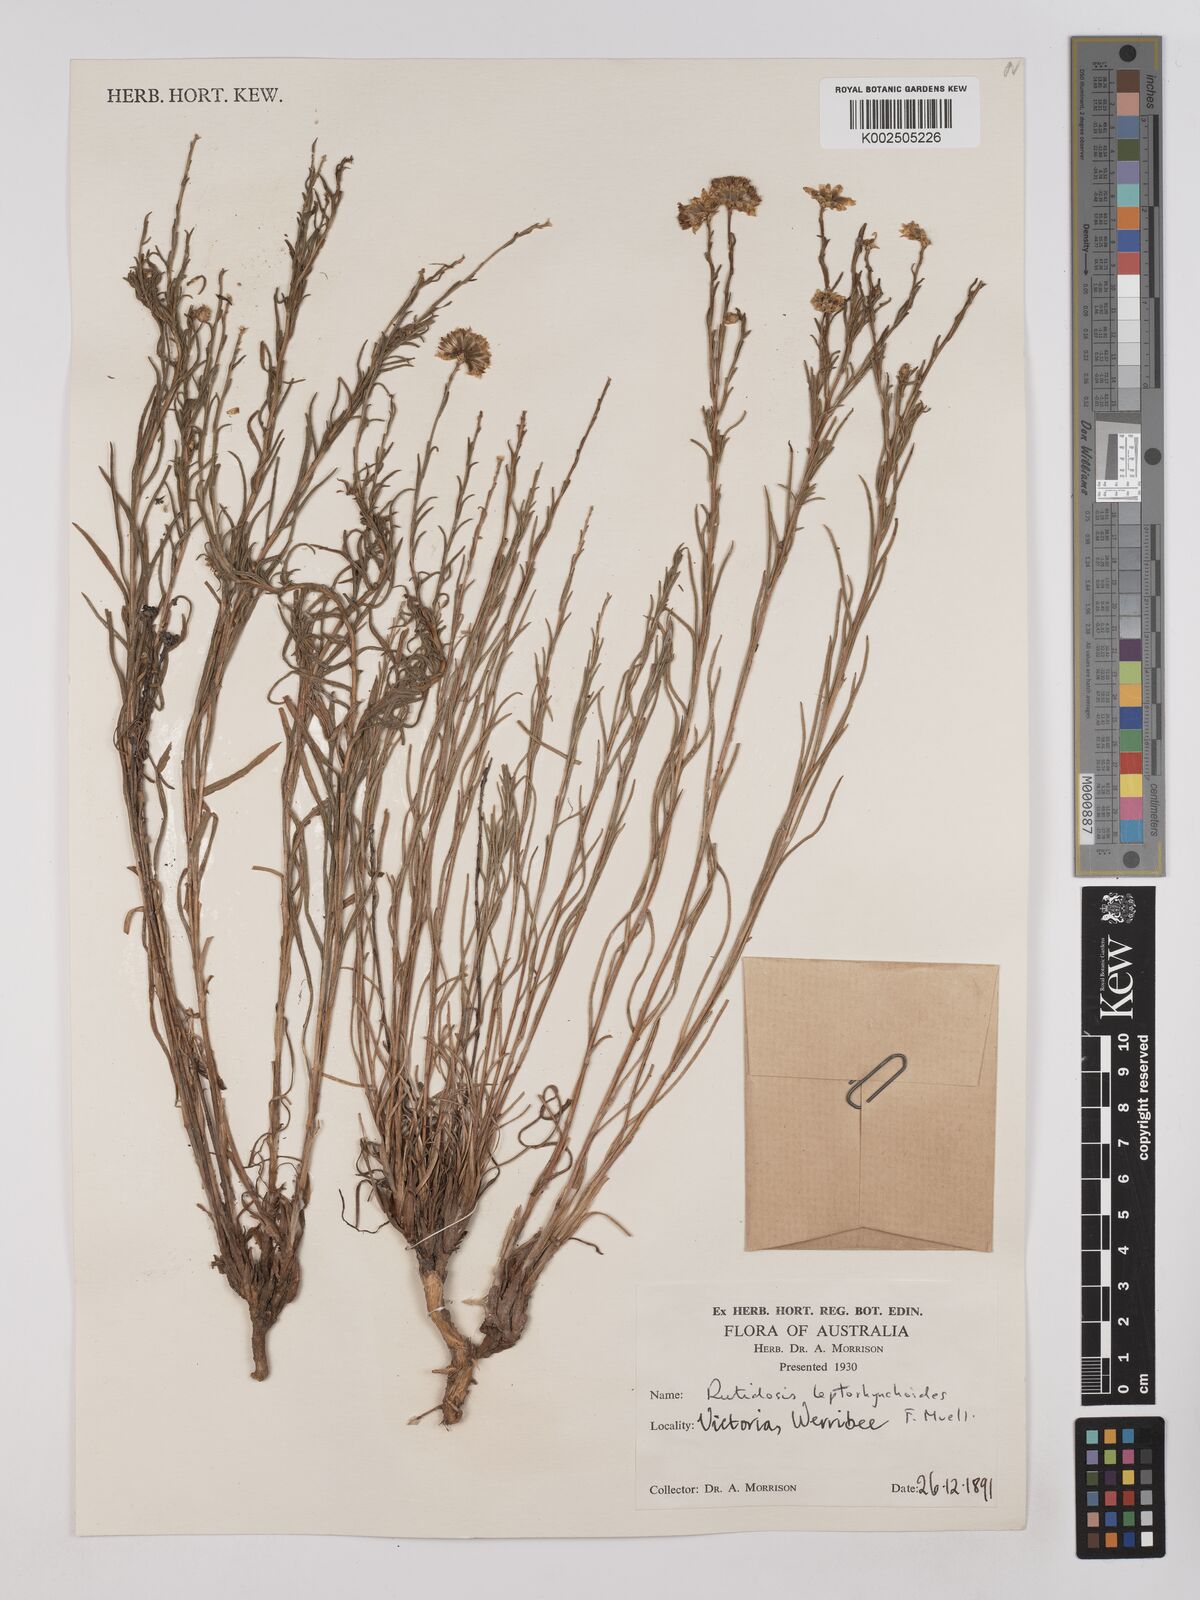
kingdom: Plantae
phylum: Tracheophyta
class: Magnoliopsida
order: Asterales
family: Asteraceae
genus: Rutidosis
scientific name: Rutidosis leptorrhynchoides
